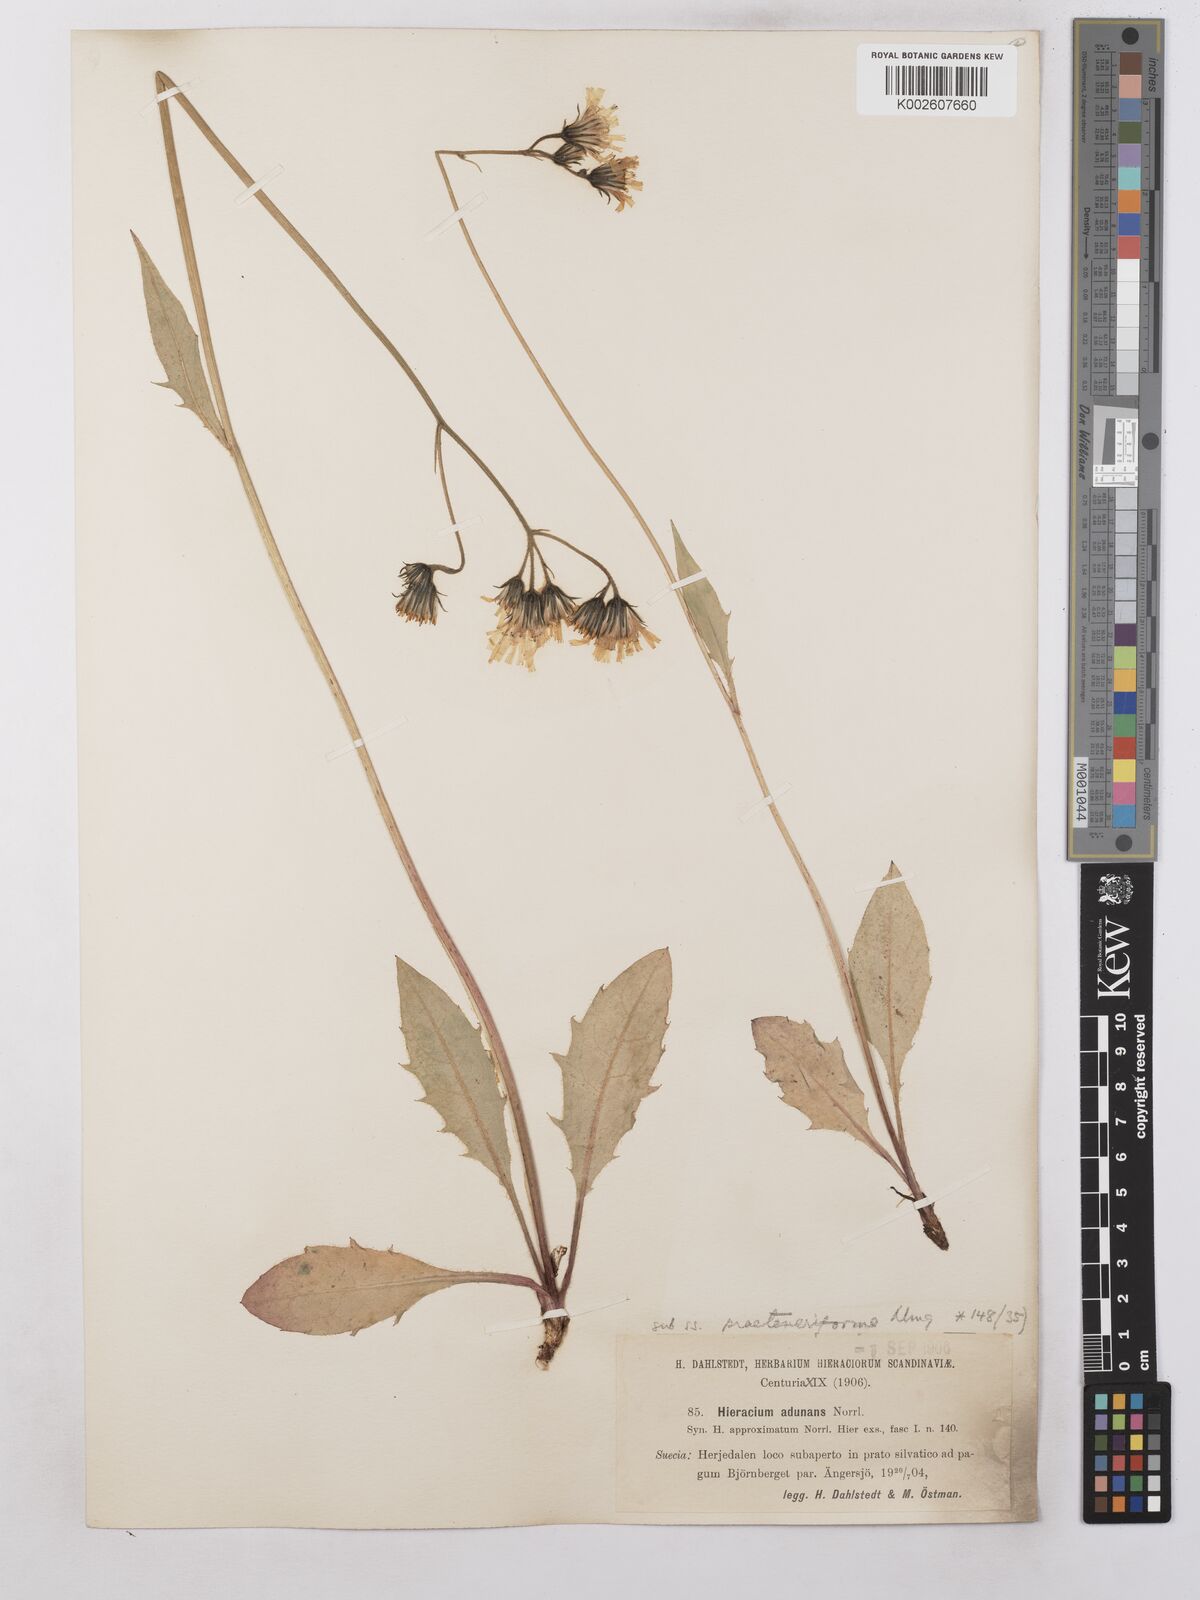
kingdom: Plantae
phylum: Tracheophyta
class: Magnoliopsida
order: Asterales
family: Asteraceae
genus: Hieracium
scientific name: Hieracium subramosum
